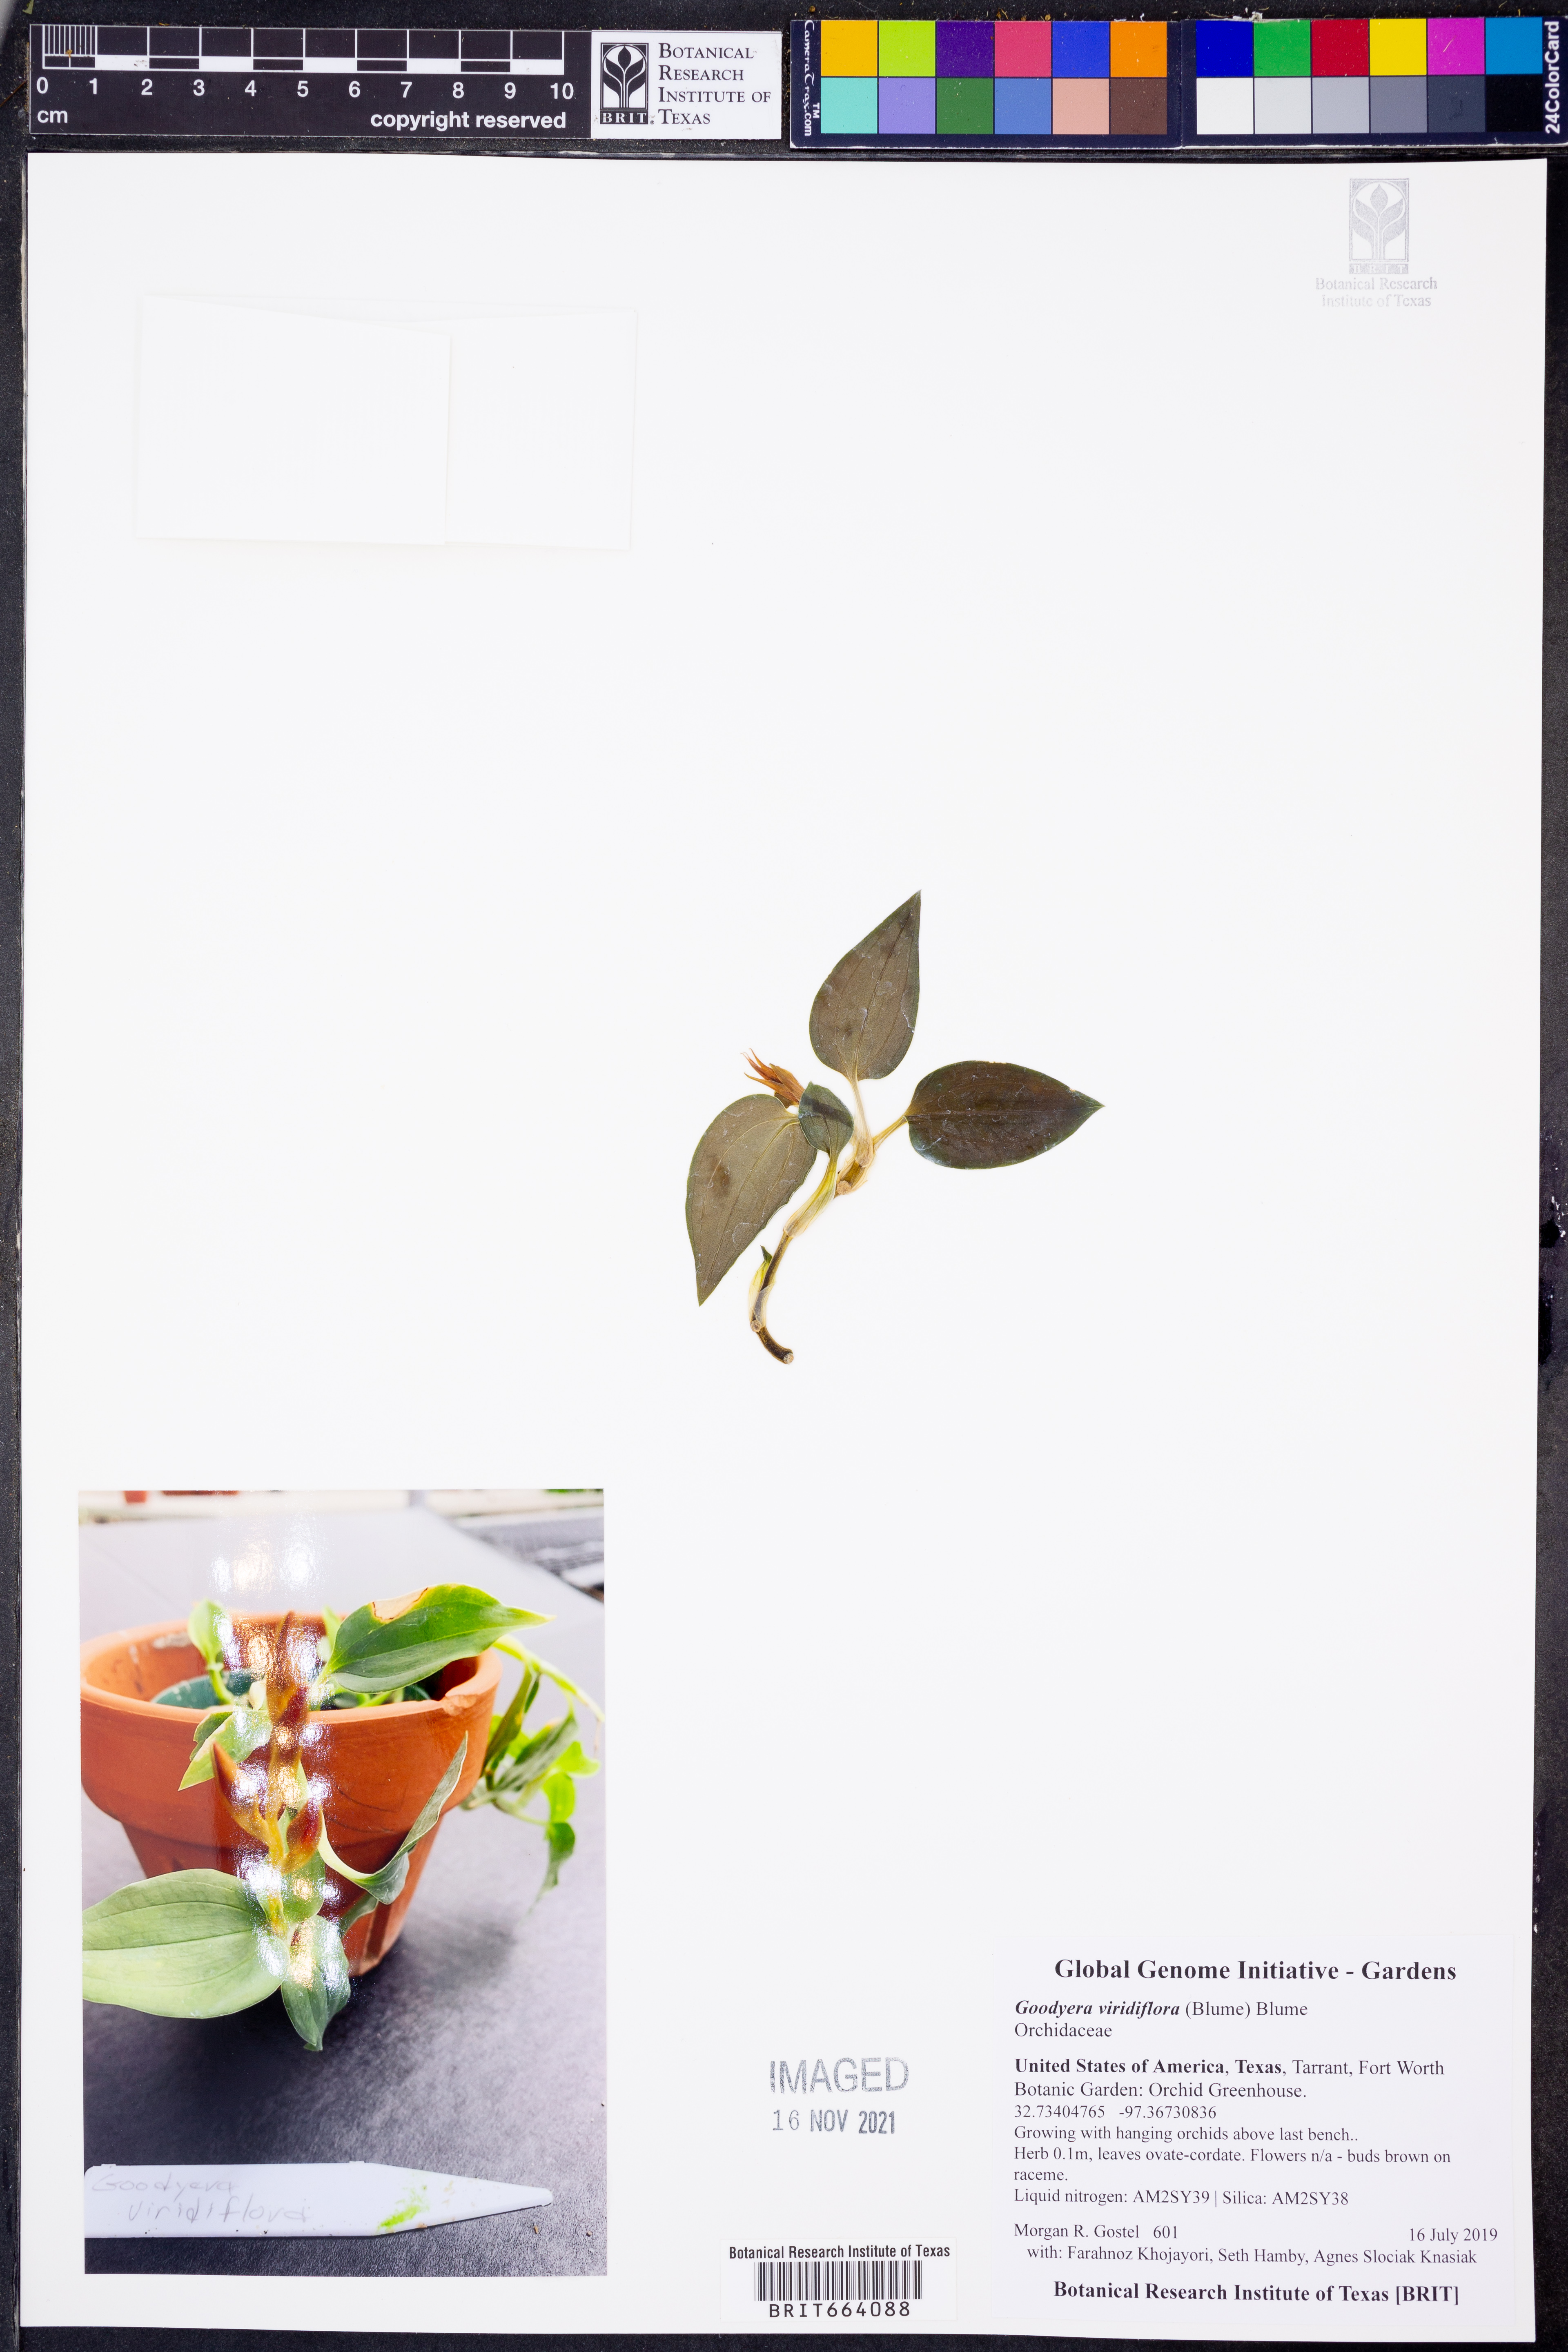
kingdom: Plantae
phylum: Tracheophyta
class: Liliopsida
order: Asparagales
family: Orchidaceae
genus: Goodyera
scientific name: Goodyera viridiflora
